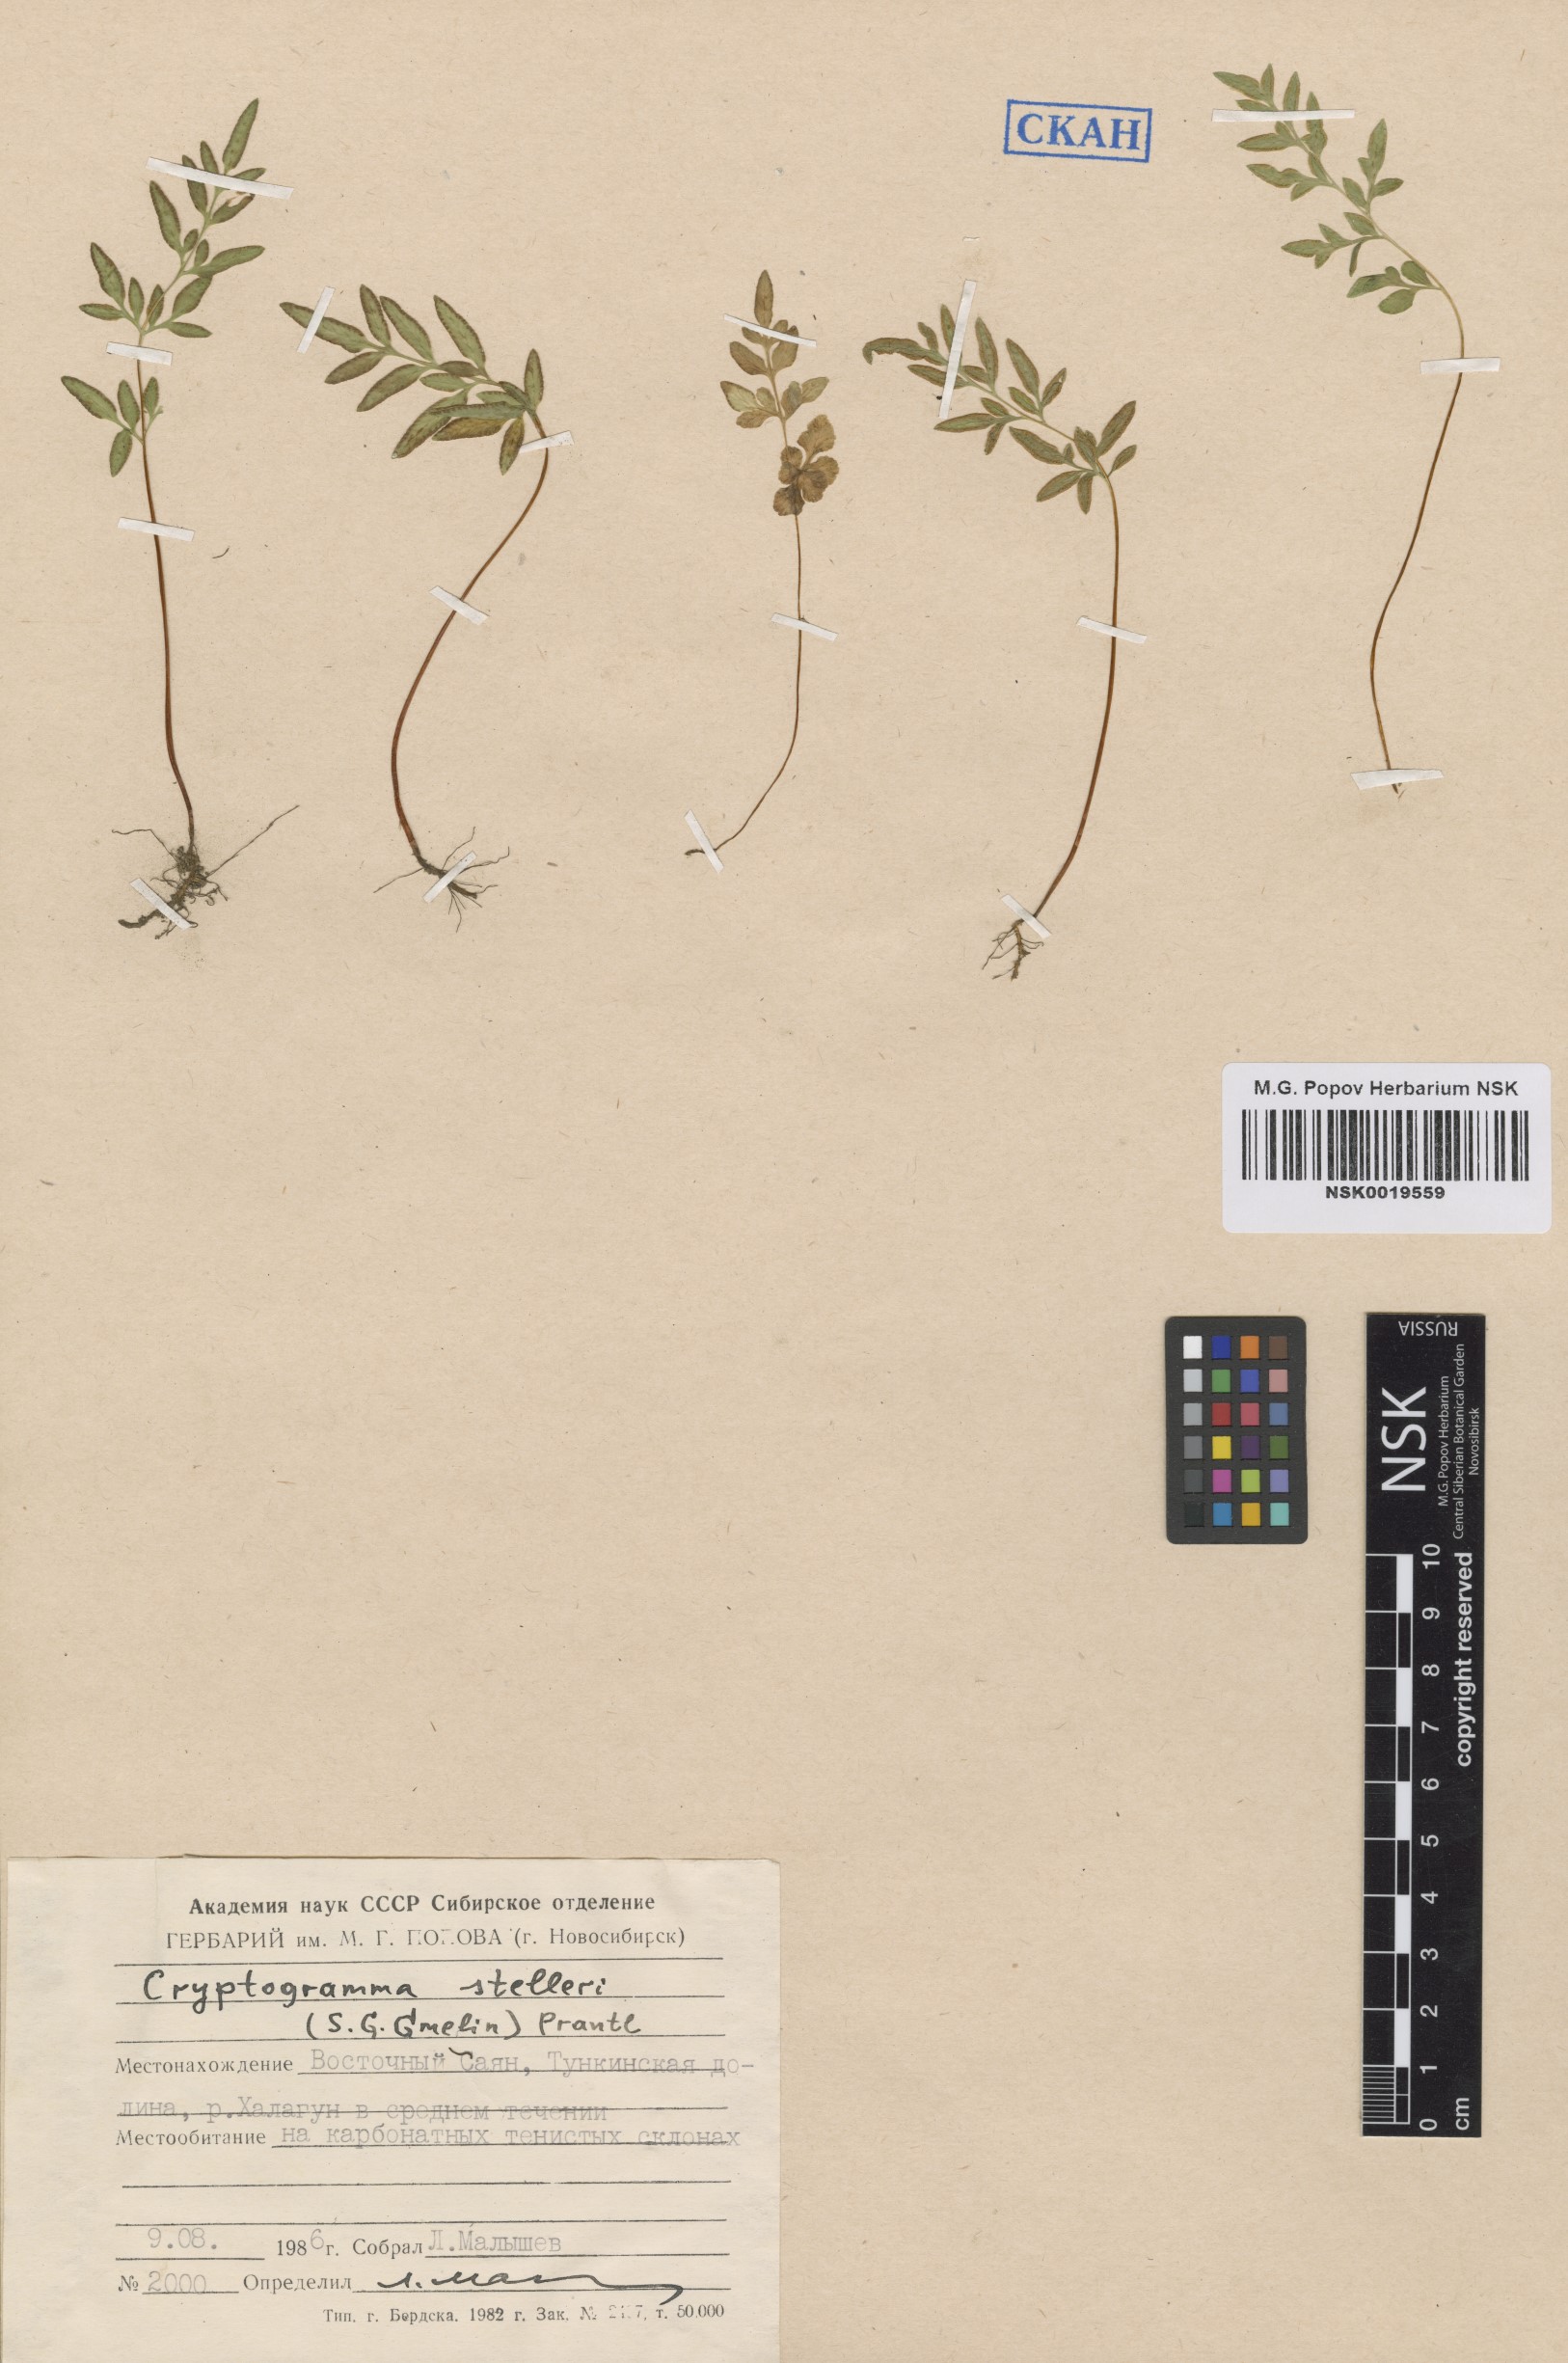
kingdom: Plantae
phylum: Tracheophyta
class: Polypodiopsida
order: Polypodiales
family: Pteridaceae
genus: Cryptogramma
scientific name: Cryptogramma stelleri
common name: Cliff-brake
